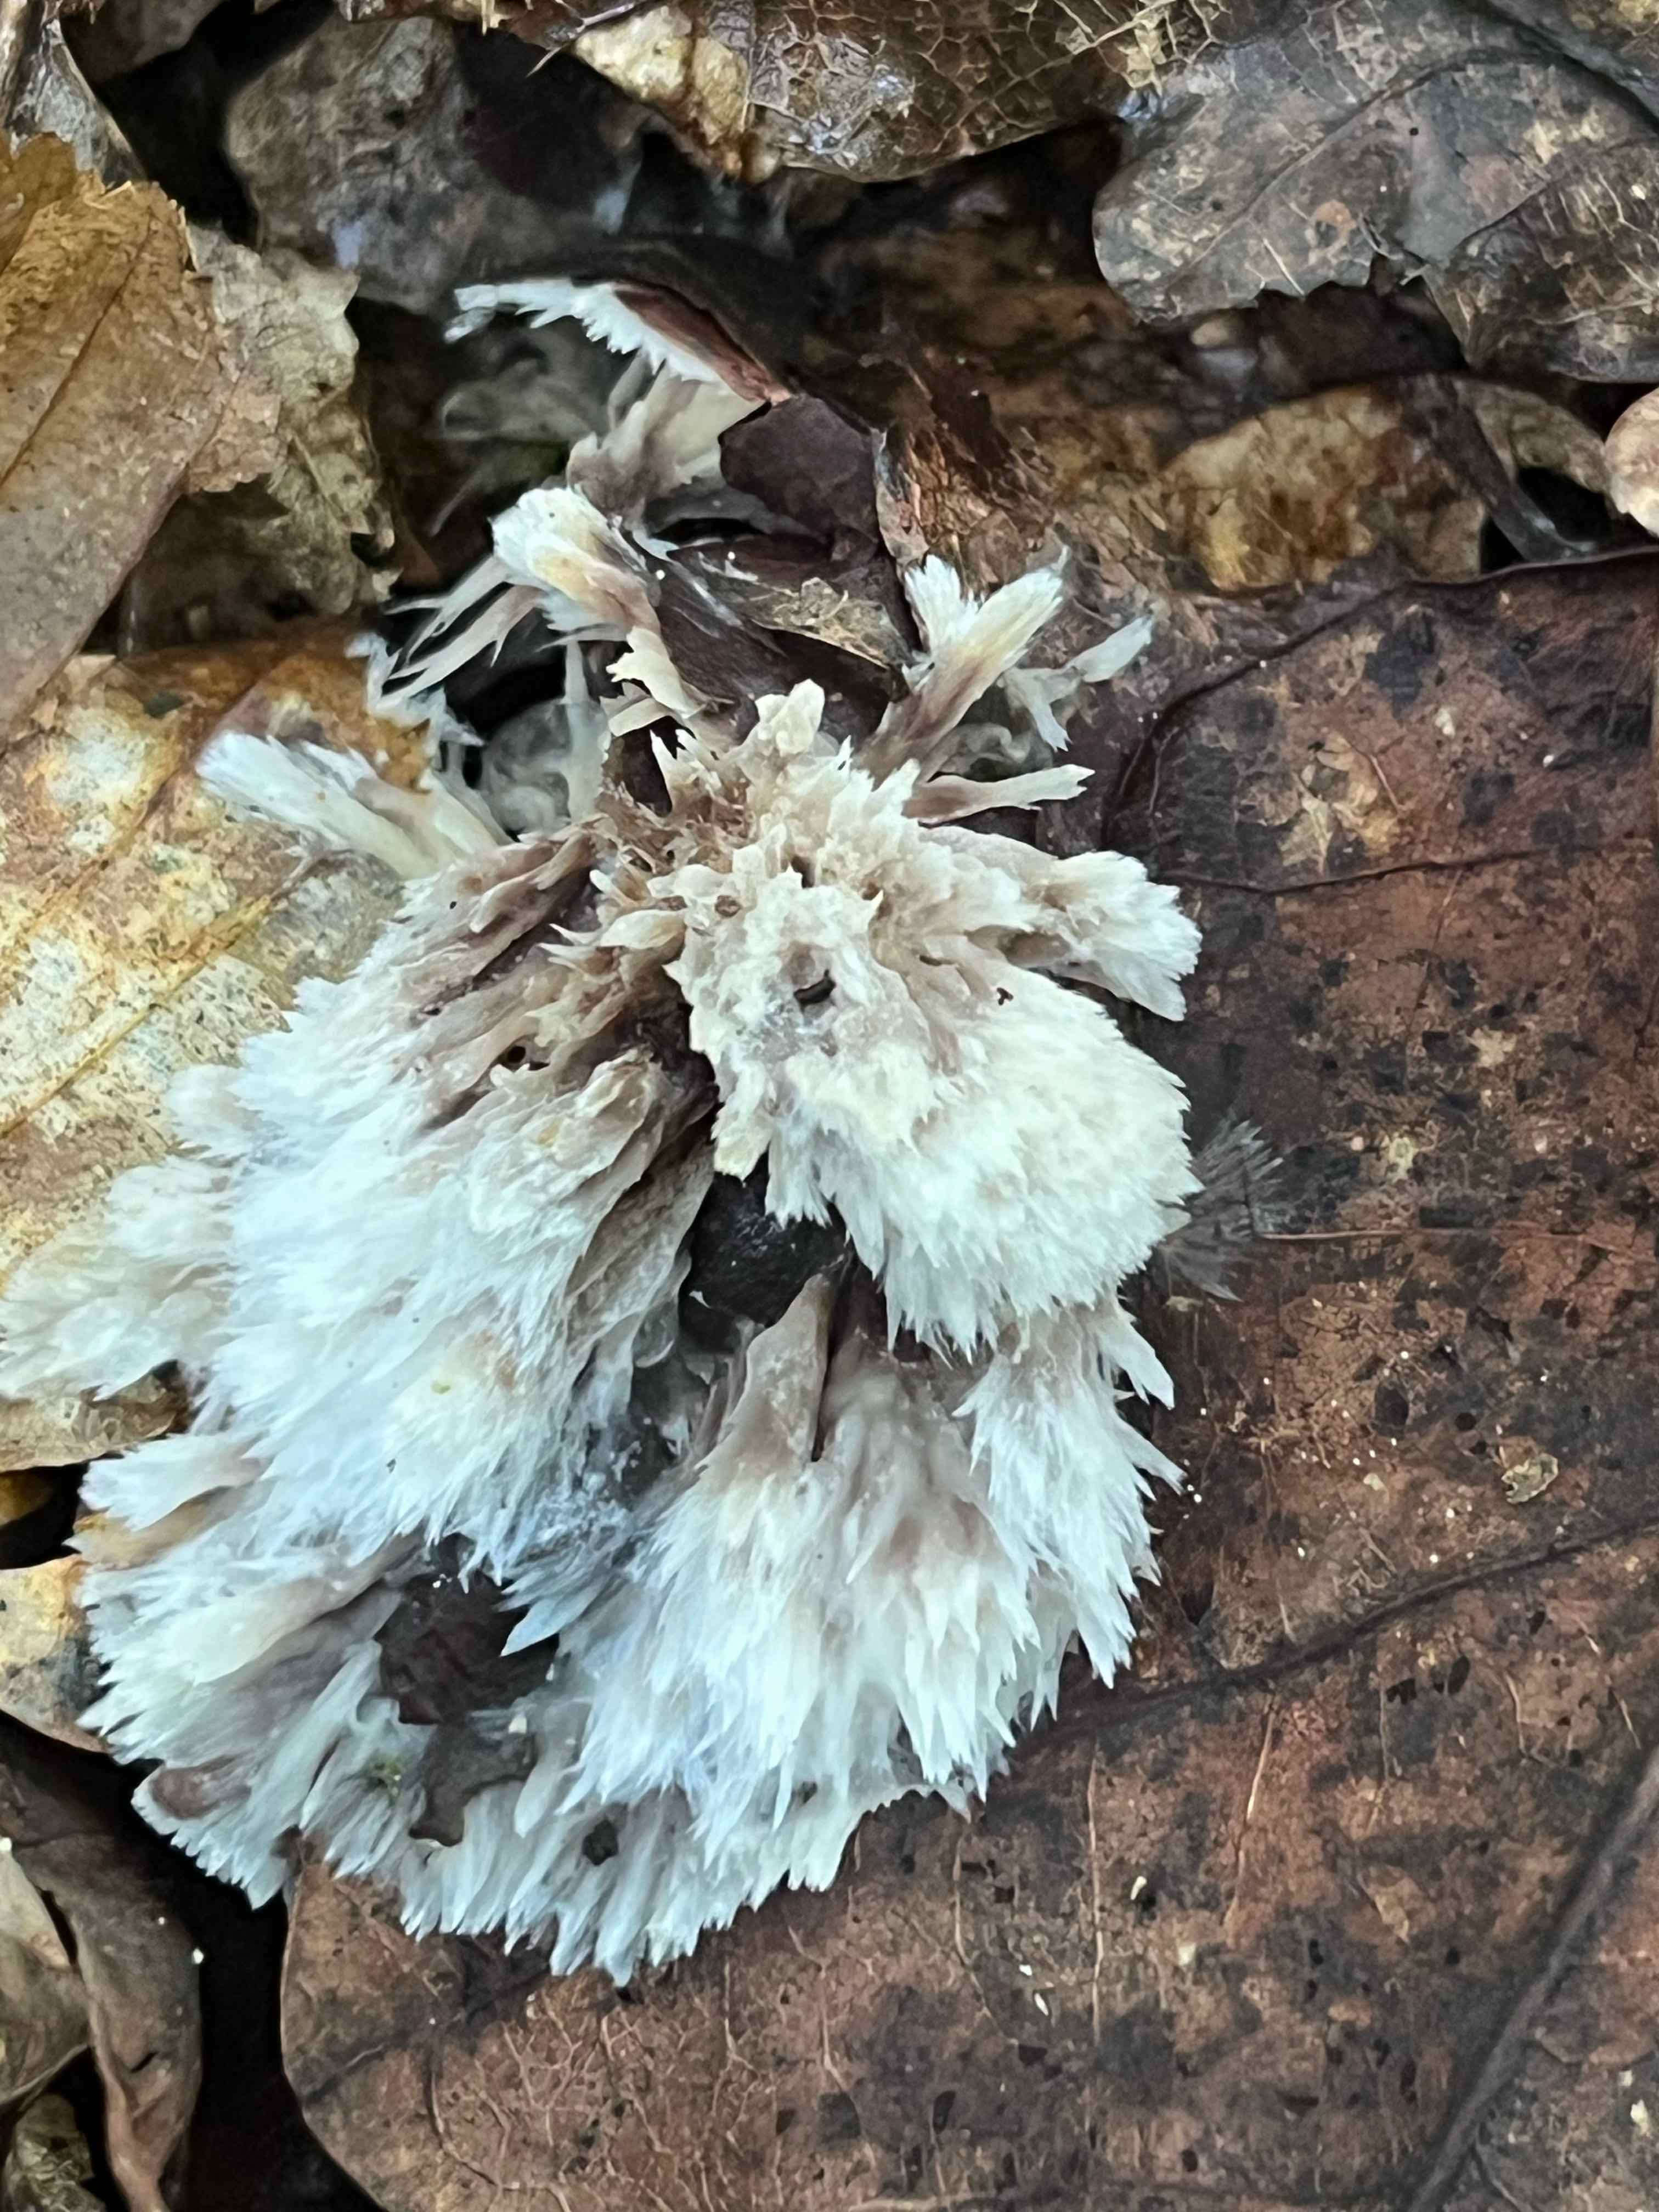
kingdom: Fungi
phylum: Basidiomycota
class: Agaricomycetes
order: Thelephorales
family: Thelephoraceae
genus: Thelephora
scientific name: Thelephora penicillata
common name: fladtrådt frynsesvamp
